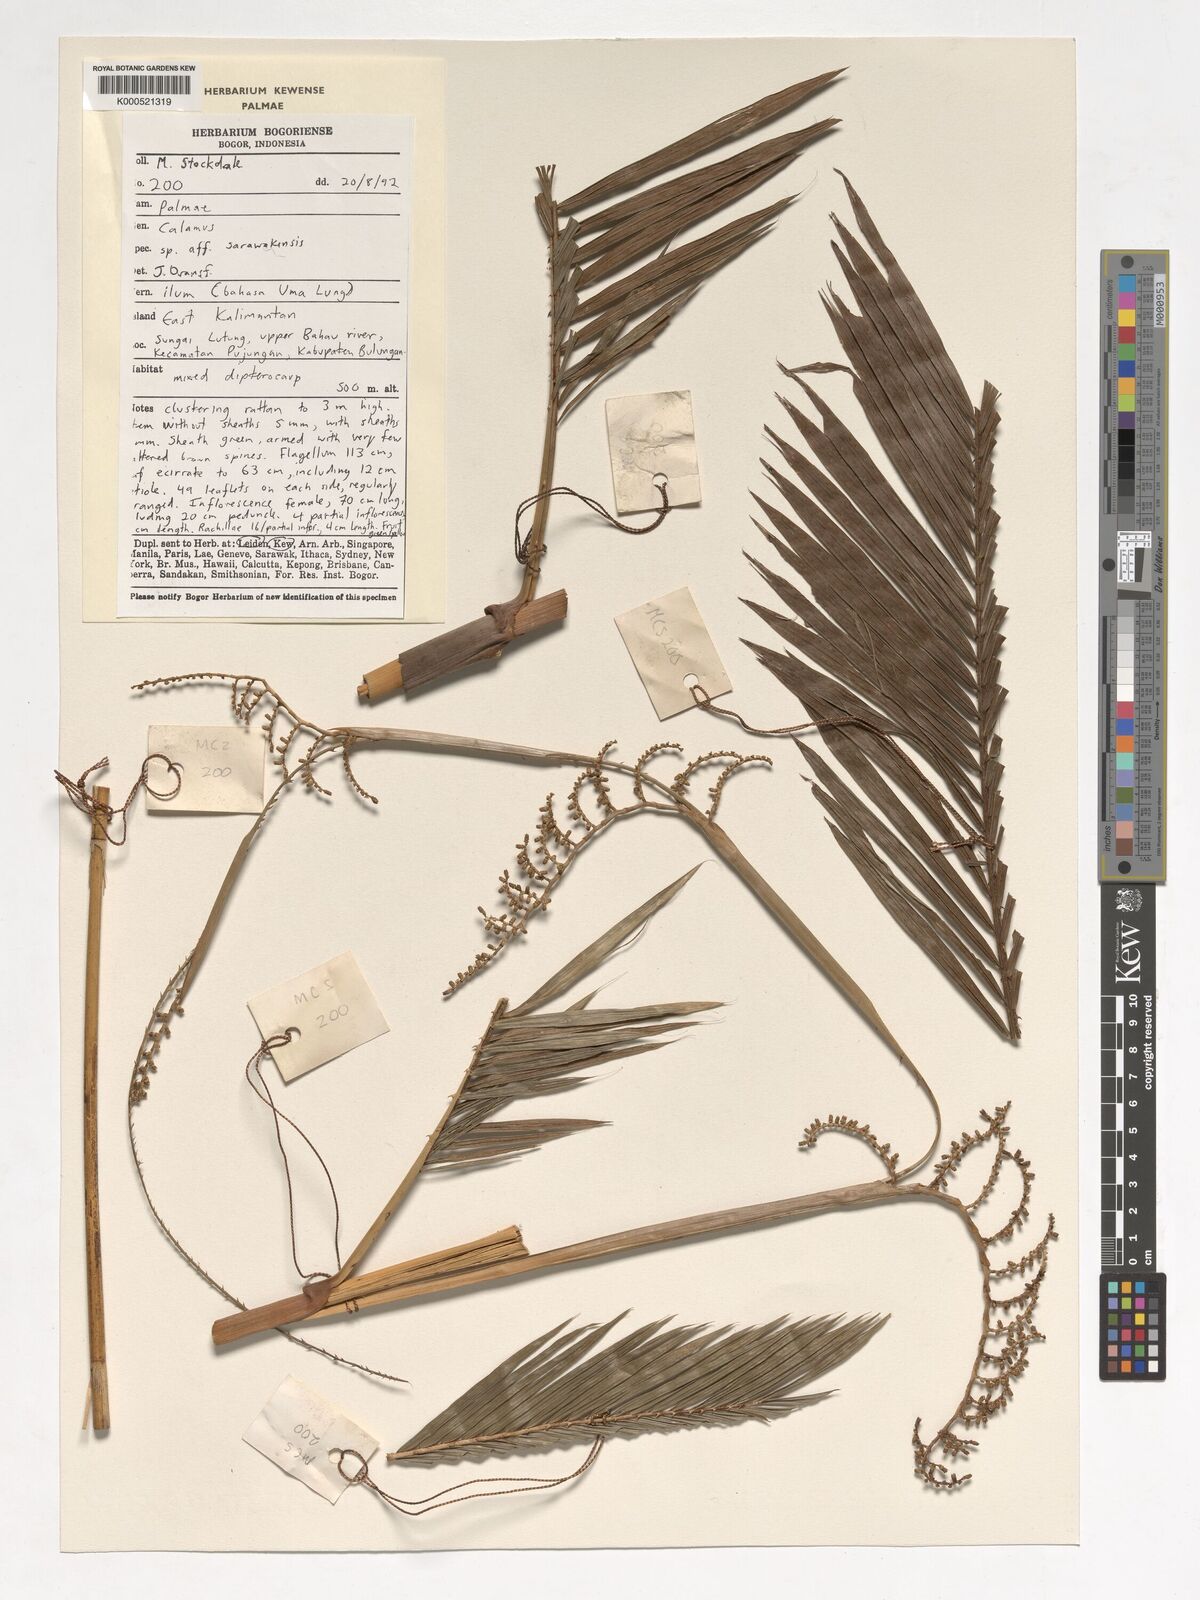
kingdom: Plantae
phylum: Tracheophyta
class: Liliopsida
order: Arecales
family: Arecaceae
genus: Calamus
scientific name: Calamus sarawakensis
